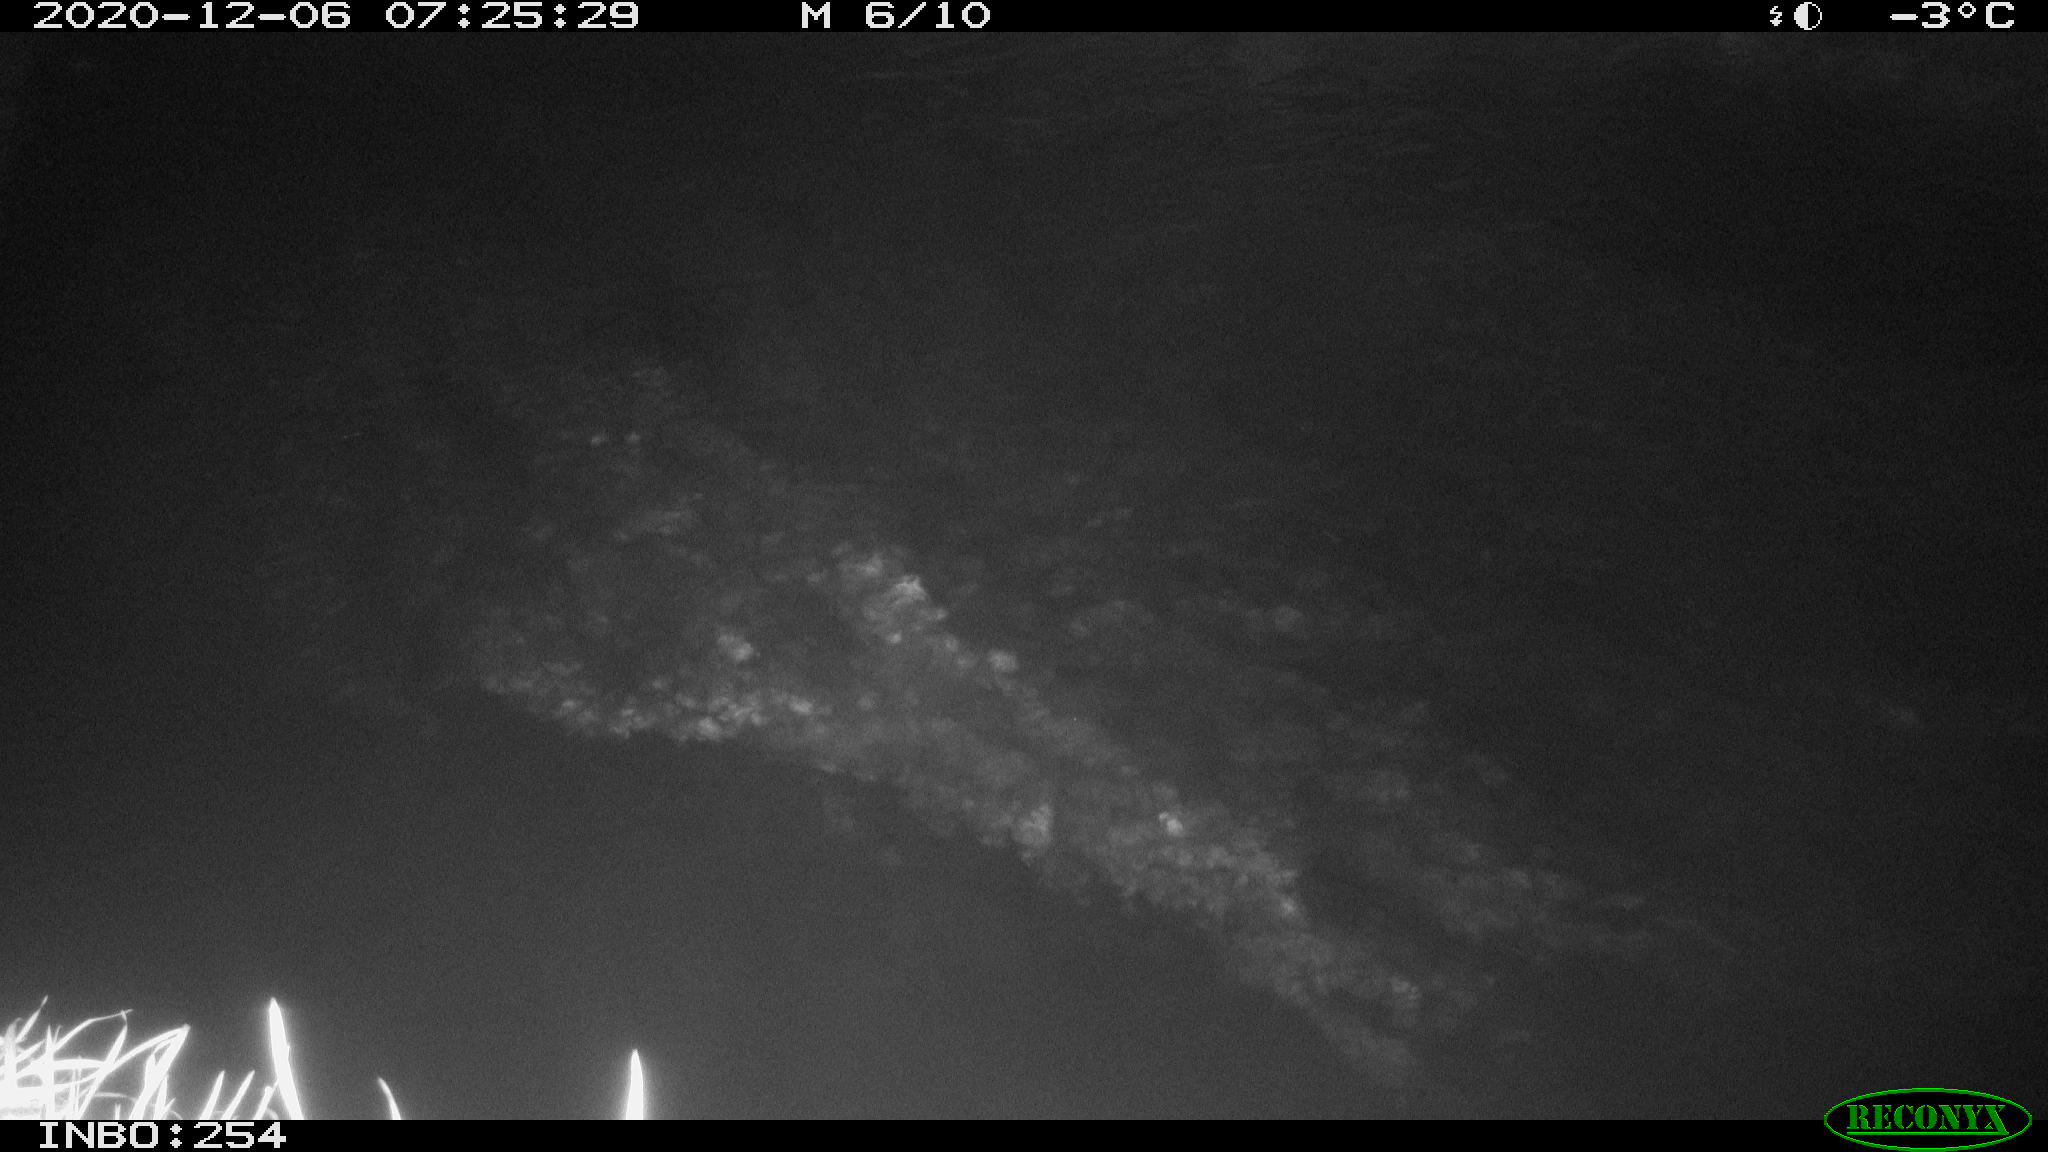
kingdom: Animalia
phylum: Chordata
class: Aves
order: Anseriformes
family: Anatidae
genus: Anas
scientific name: Anas platyrhynchos
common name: Mallard
